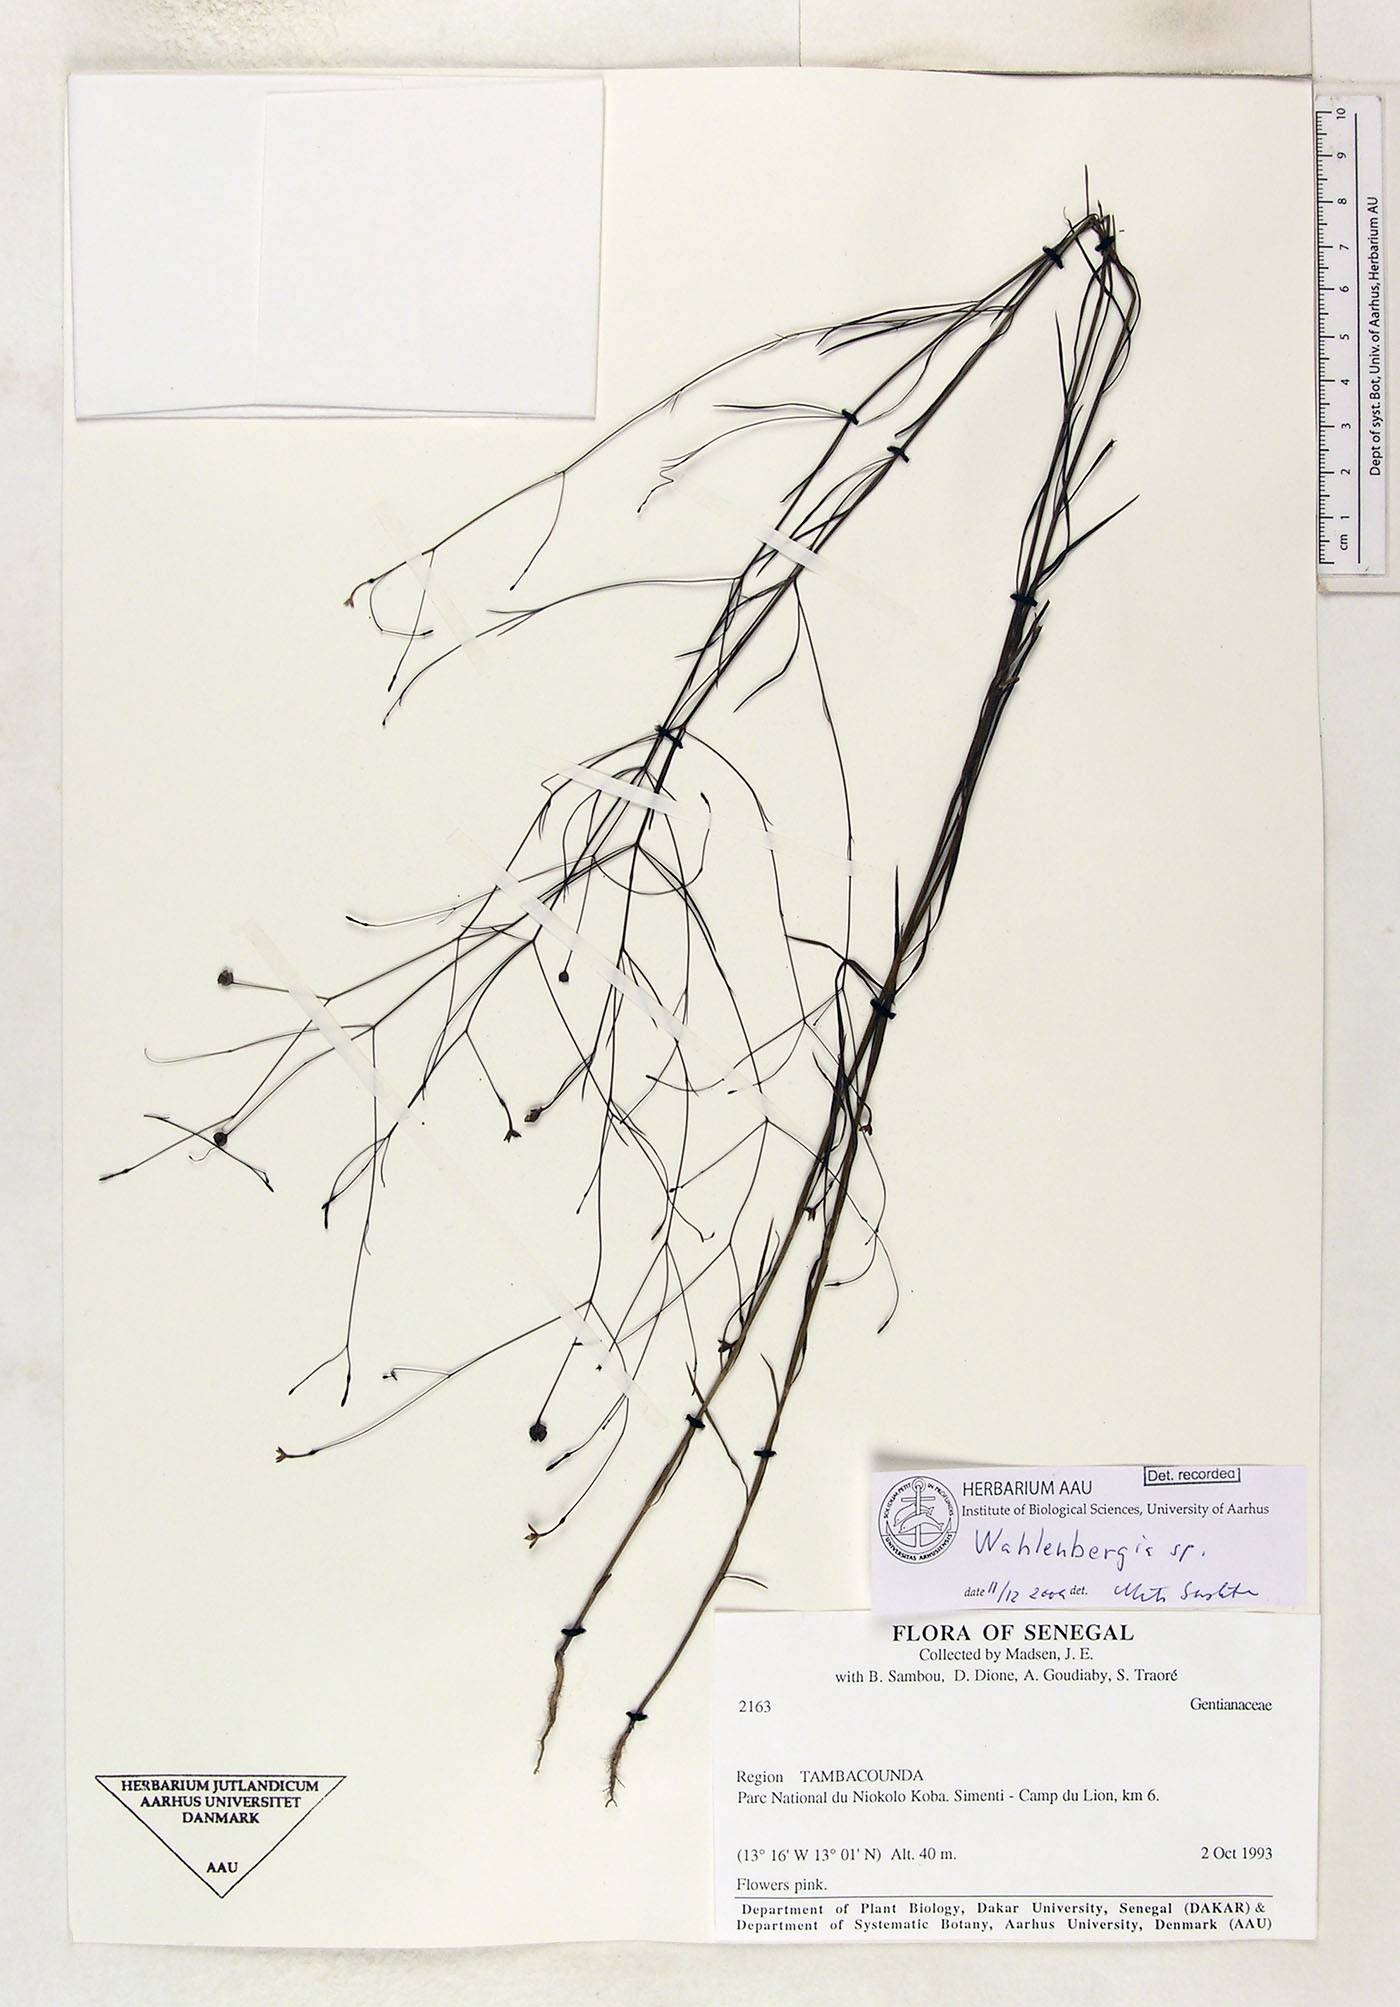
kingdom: Plantae
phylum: Tracheophyta
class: Magnoliopsida
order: Asterales
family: Campanulaceae
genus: Wahlenbergia
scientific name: Wahlenbergia
